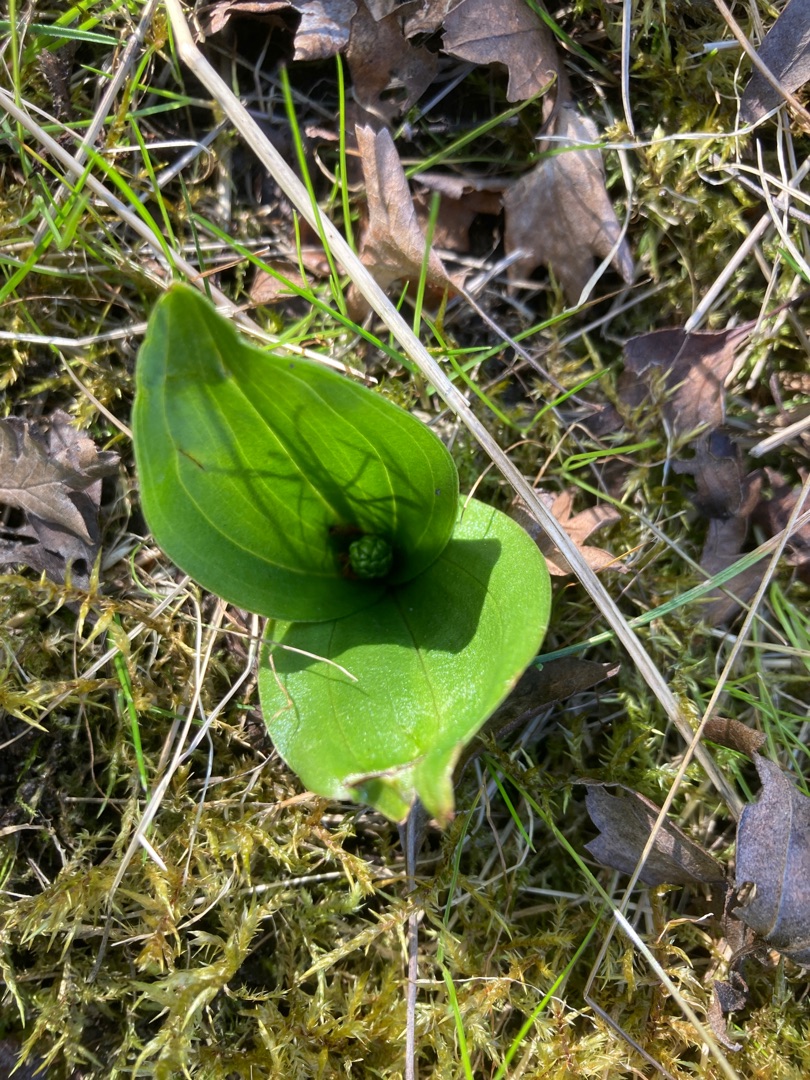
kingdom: Plantae
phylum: Tracheophyta
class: Liliopsida
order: Asparagales
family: Orchidaceae
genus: Neottia
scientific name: Neottia ovata
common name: Ægbladet fliglæbe
